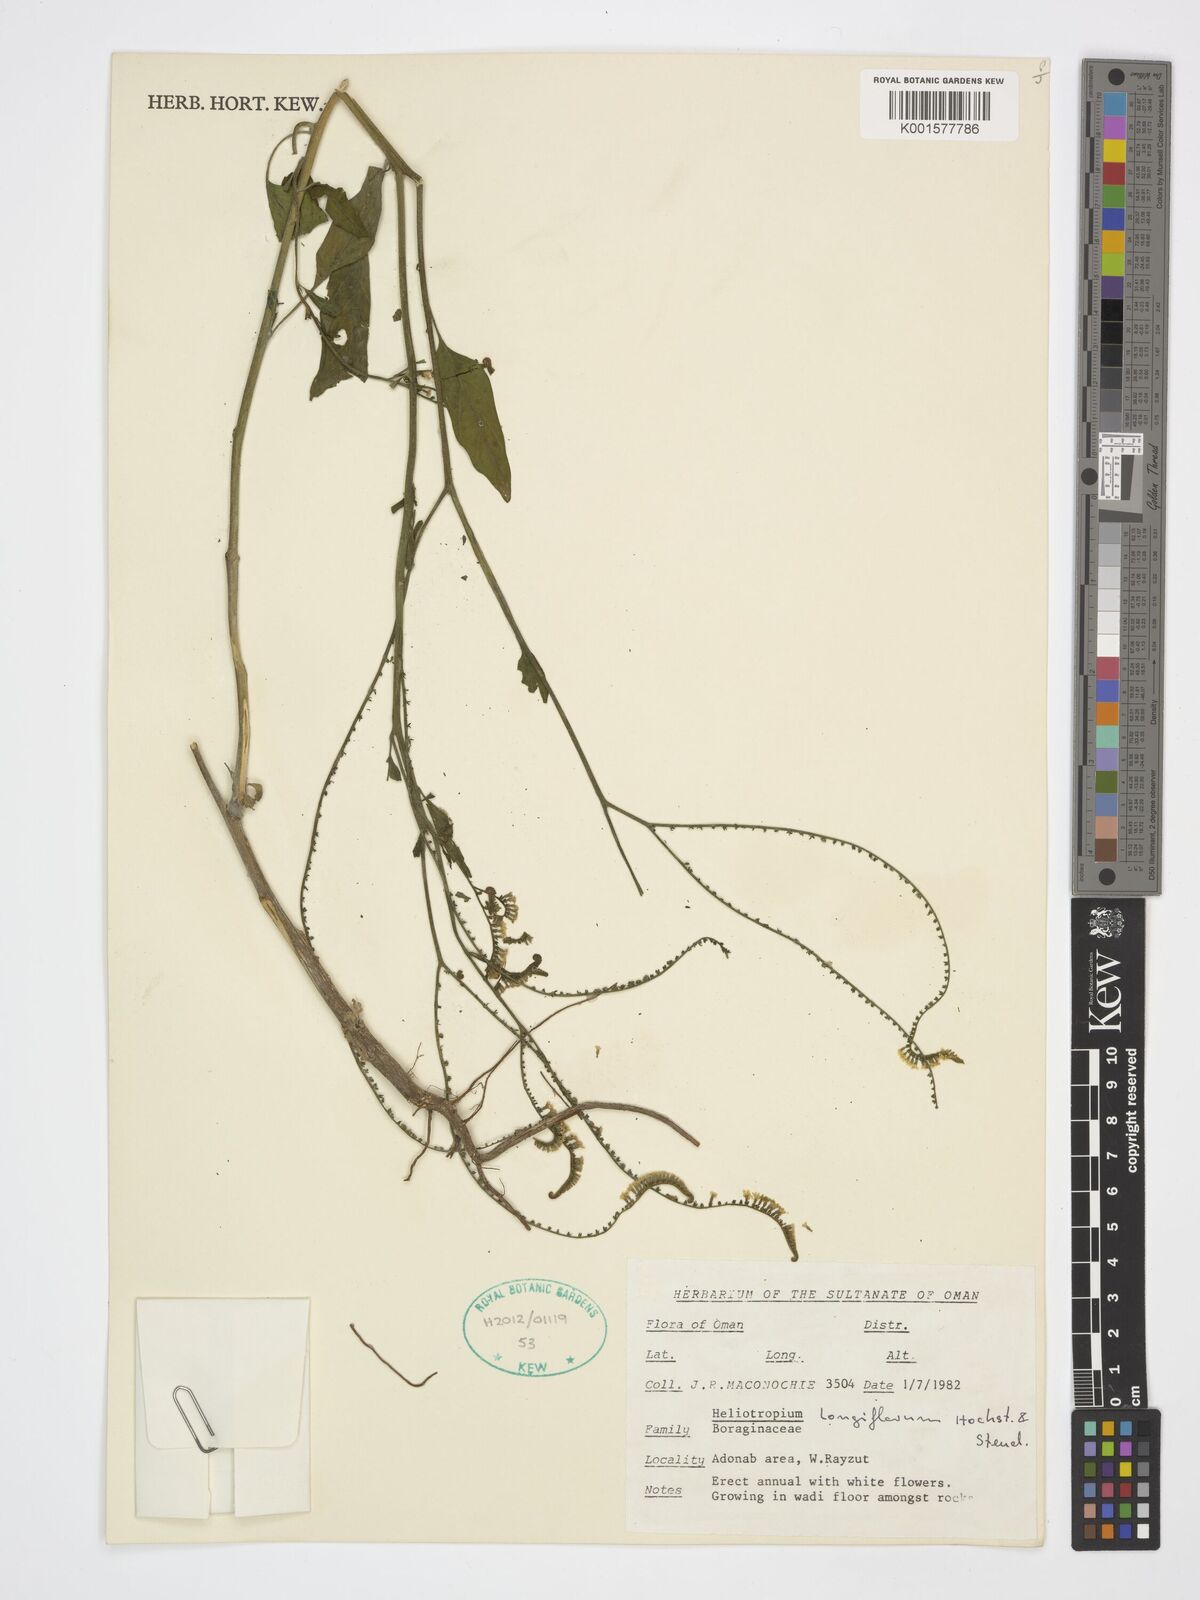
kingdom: Plantae
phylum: Tracheophyta
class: Magnoliopsida
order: Boraginales
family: Heliotropiaceae
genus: Heliotropium
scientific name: Heliotropium longiflorum
